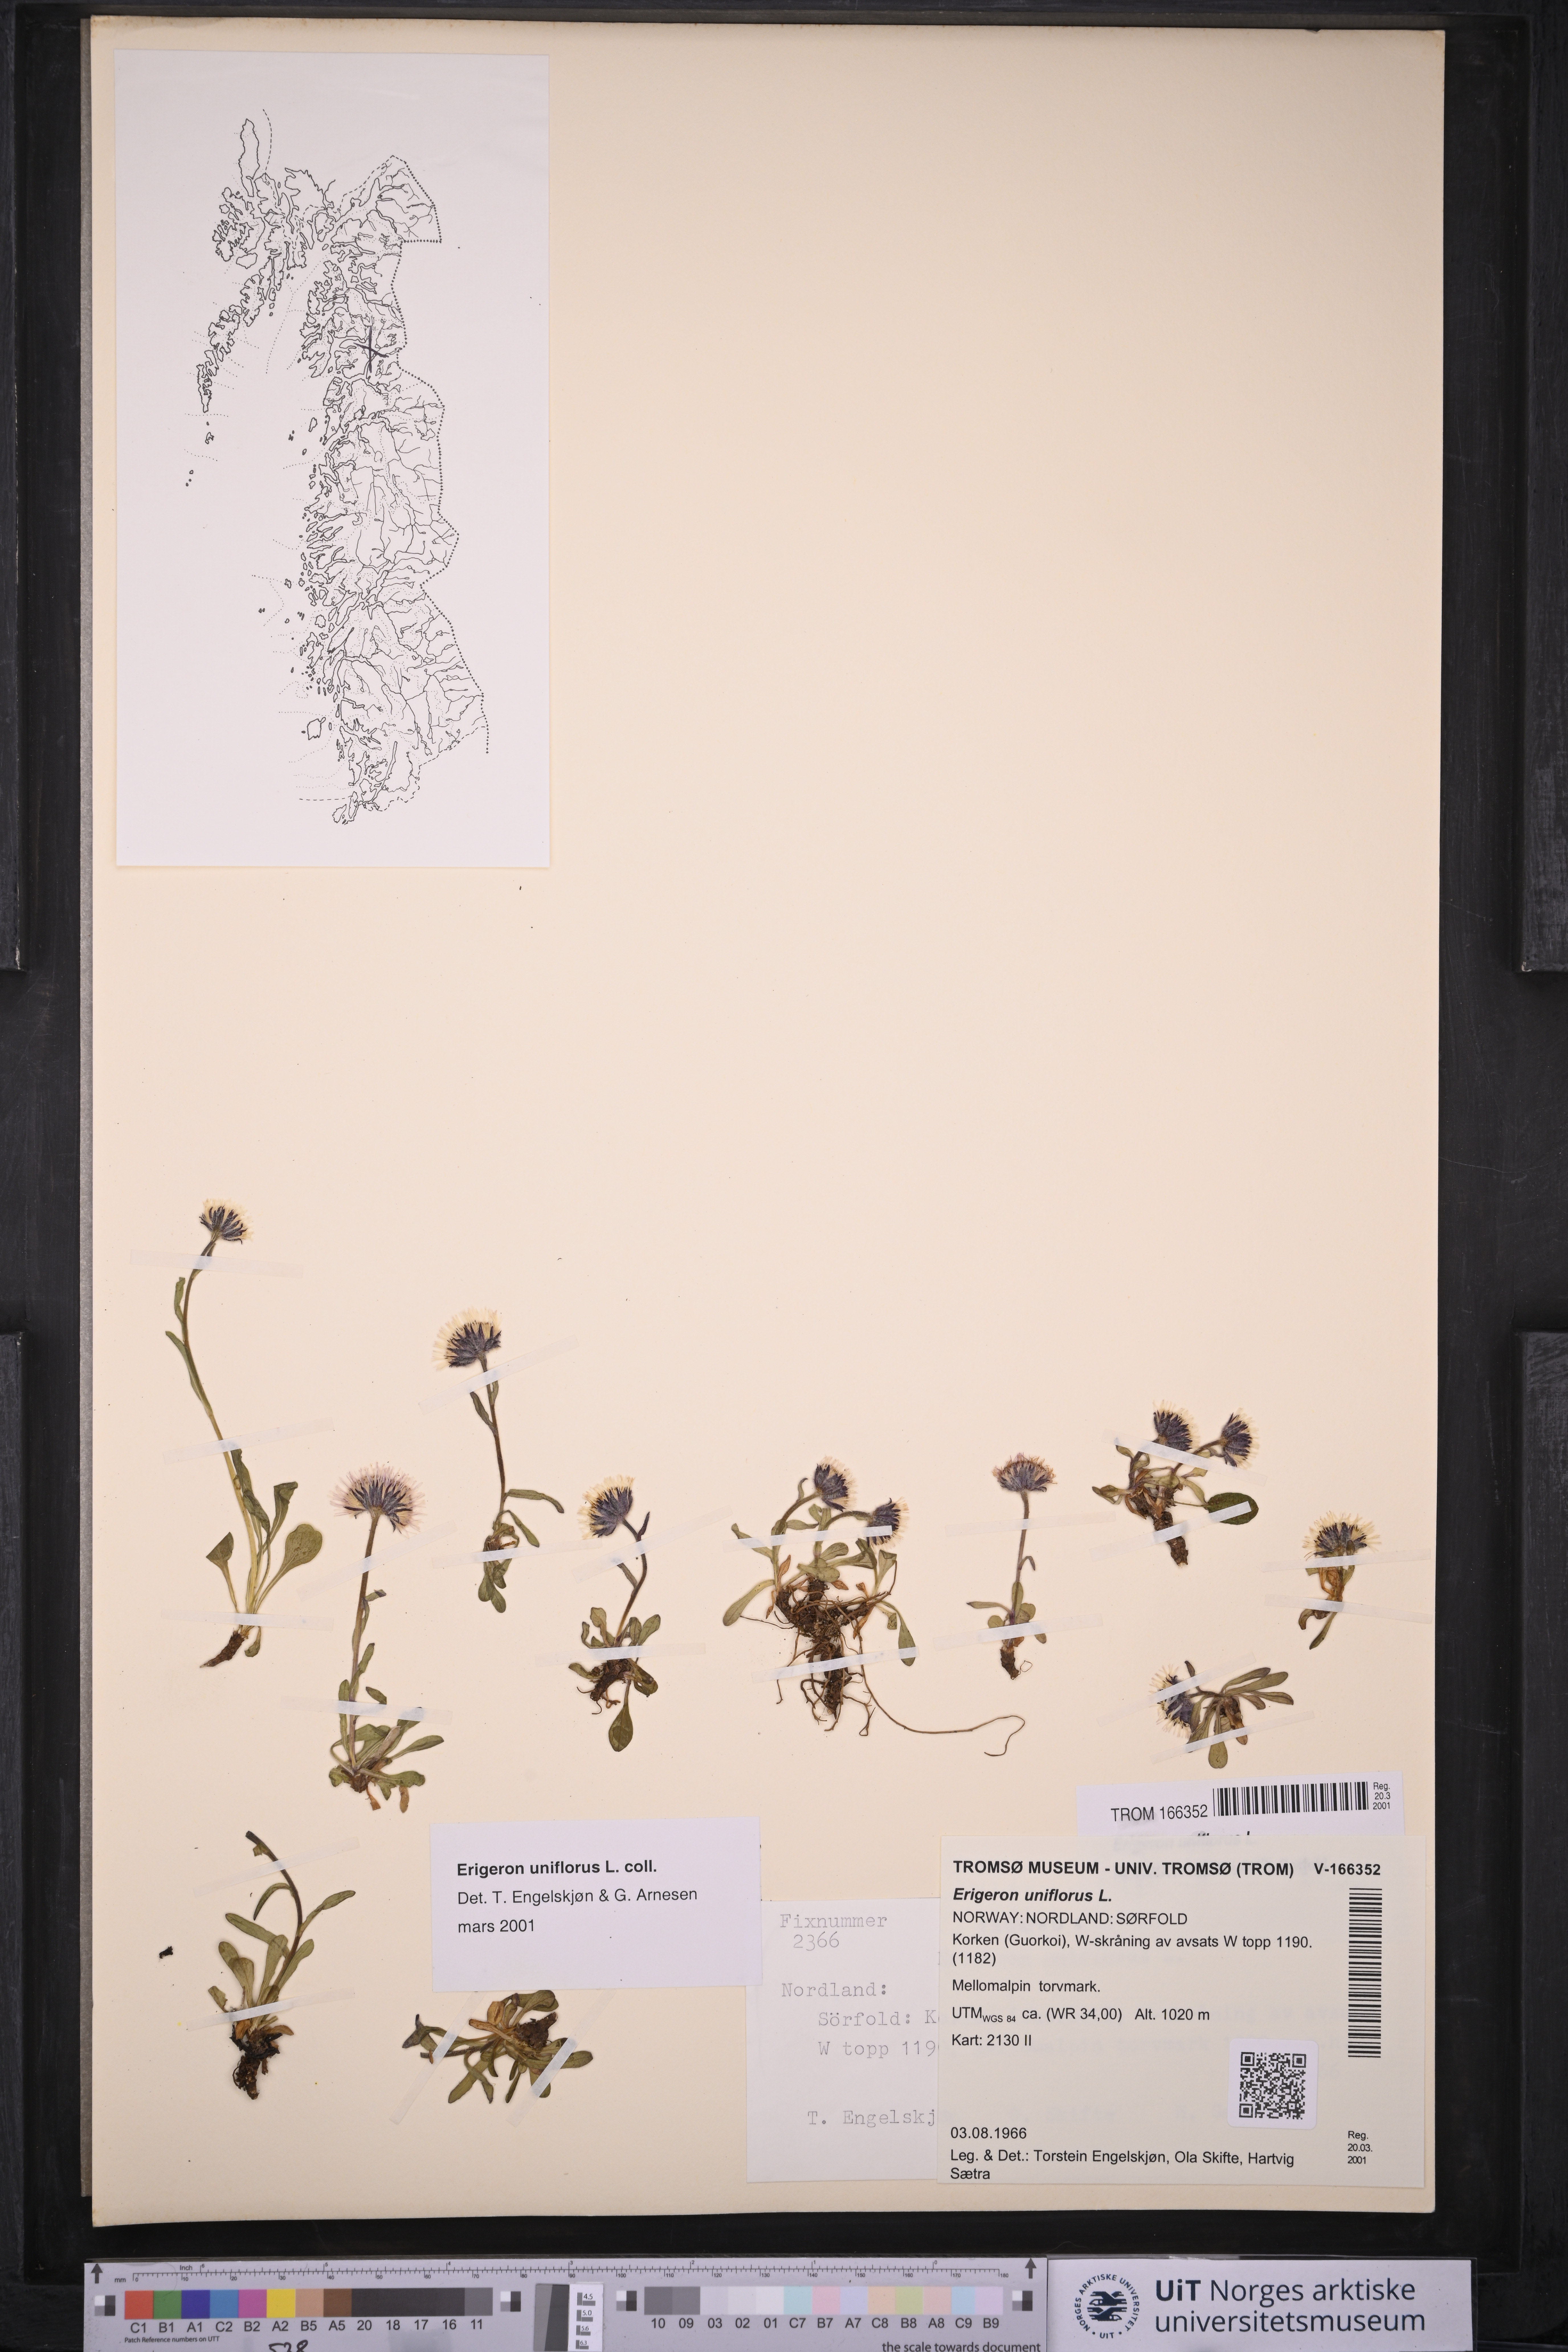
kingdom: Plantae
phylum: Tracheophyta
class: Magnoliopsida
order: Asterales
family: Asteraceae
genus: Erigeron
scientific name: Erigeron uniflorus
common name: Northern daisy
